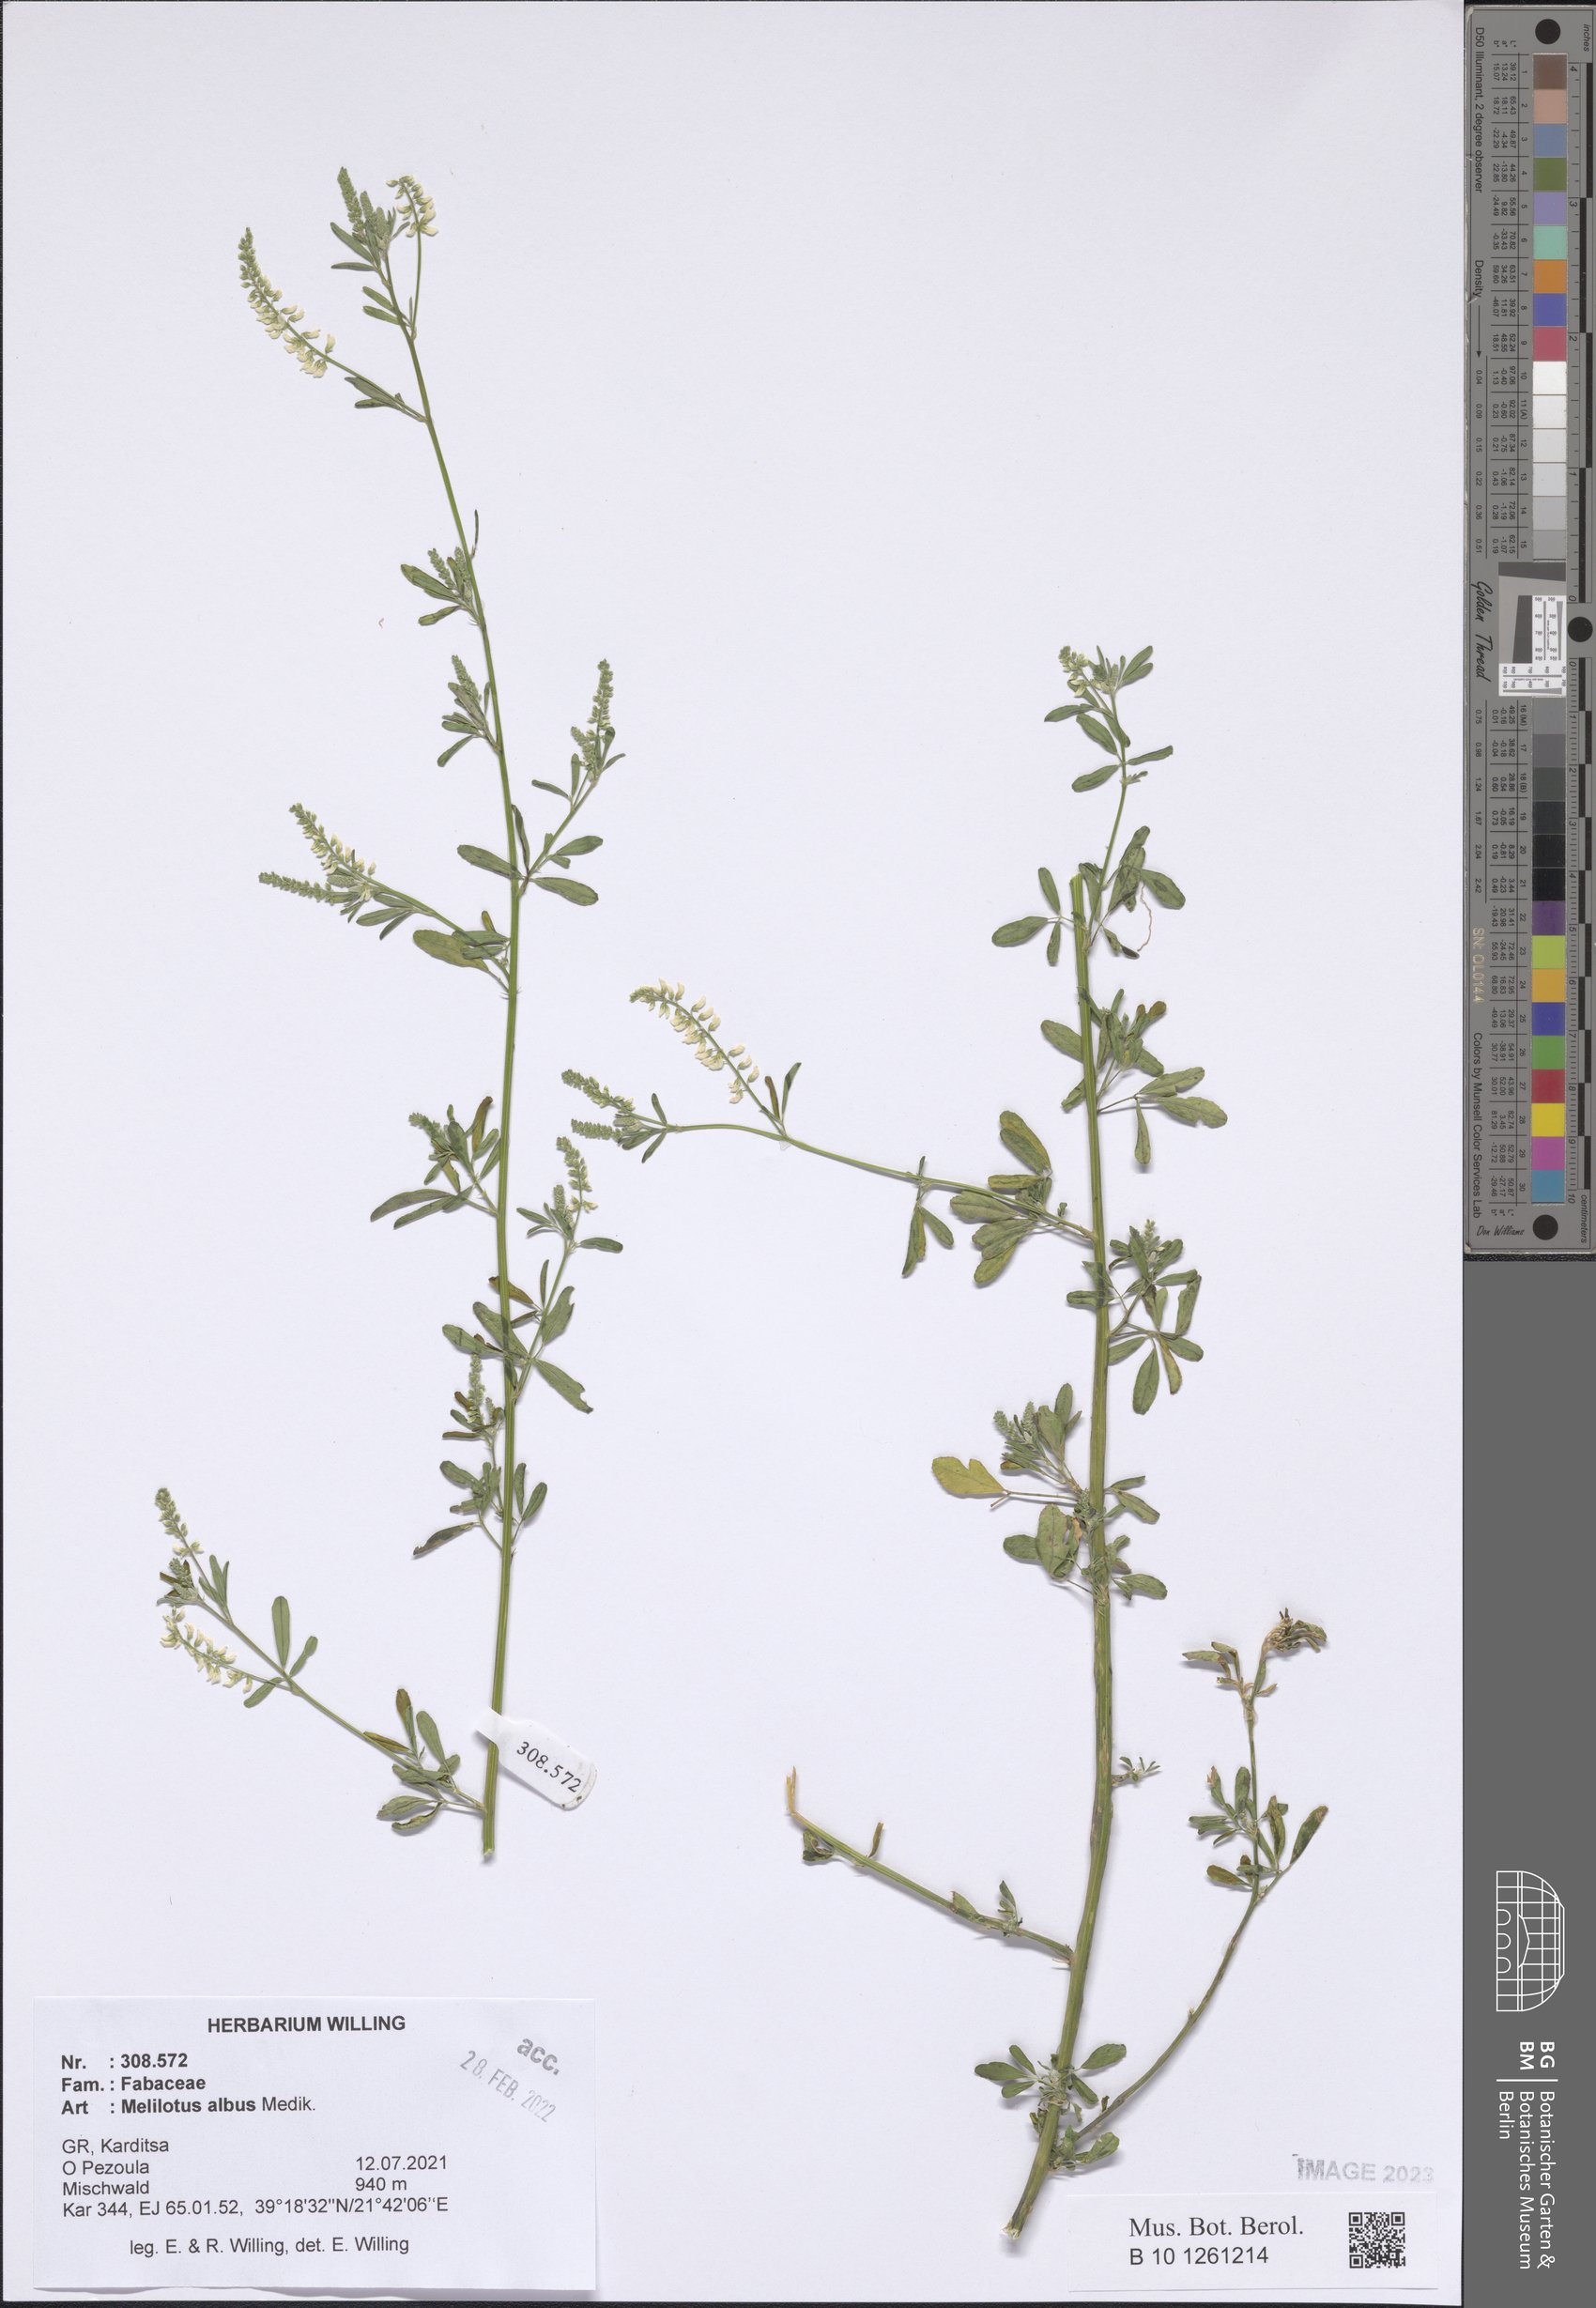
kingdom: Plantae
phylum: Tracheophyta
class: Magnoliopsida
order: Fabales
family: Fabaceae
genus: Melilotus
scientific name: Melilotus albus
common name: White melilot
